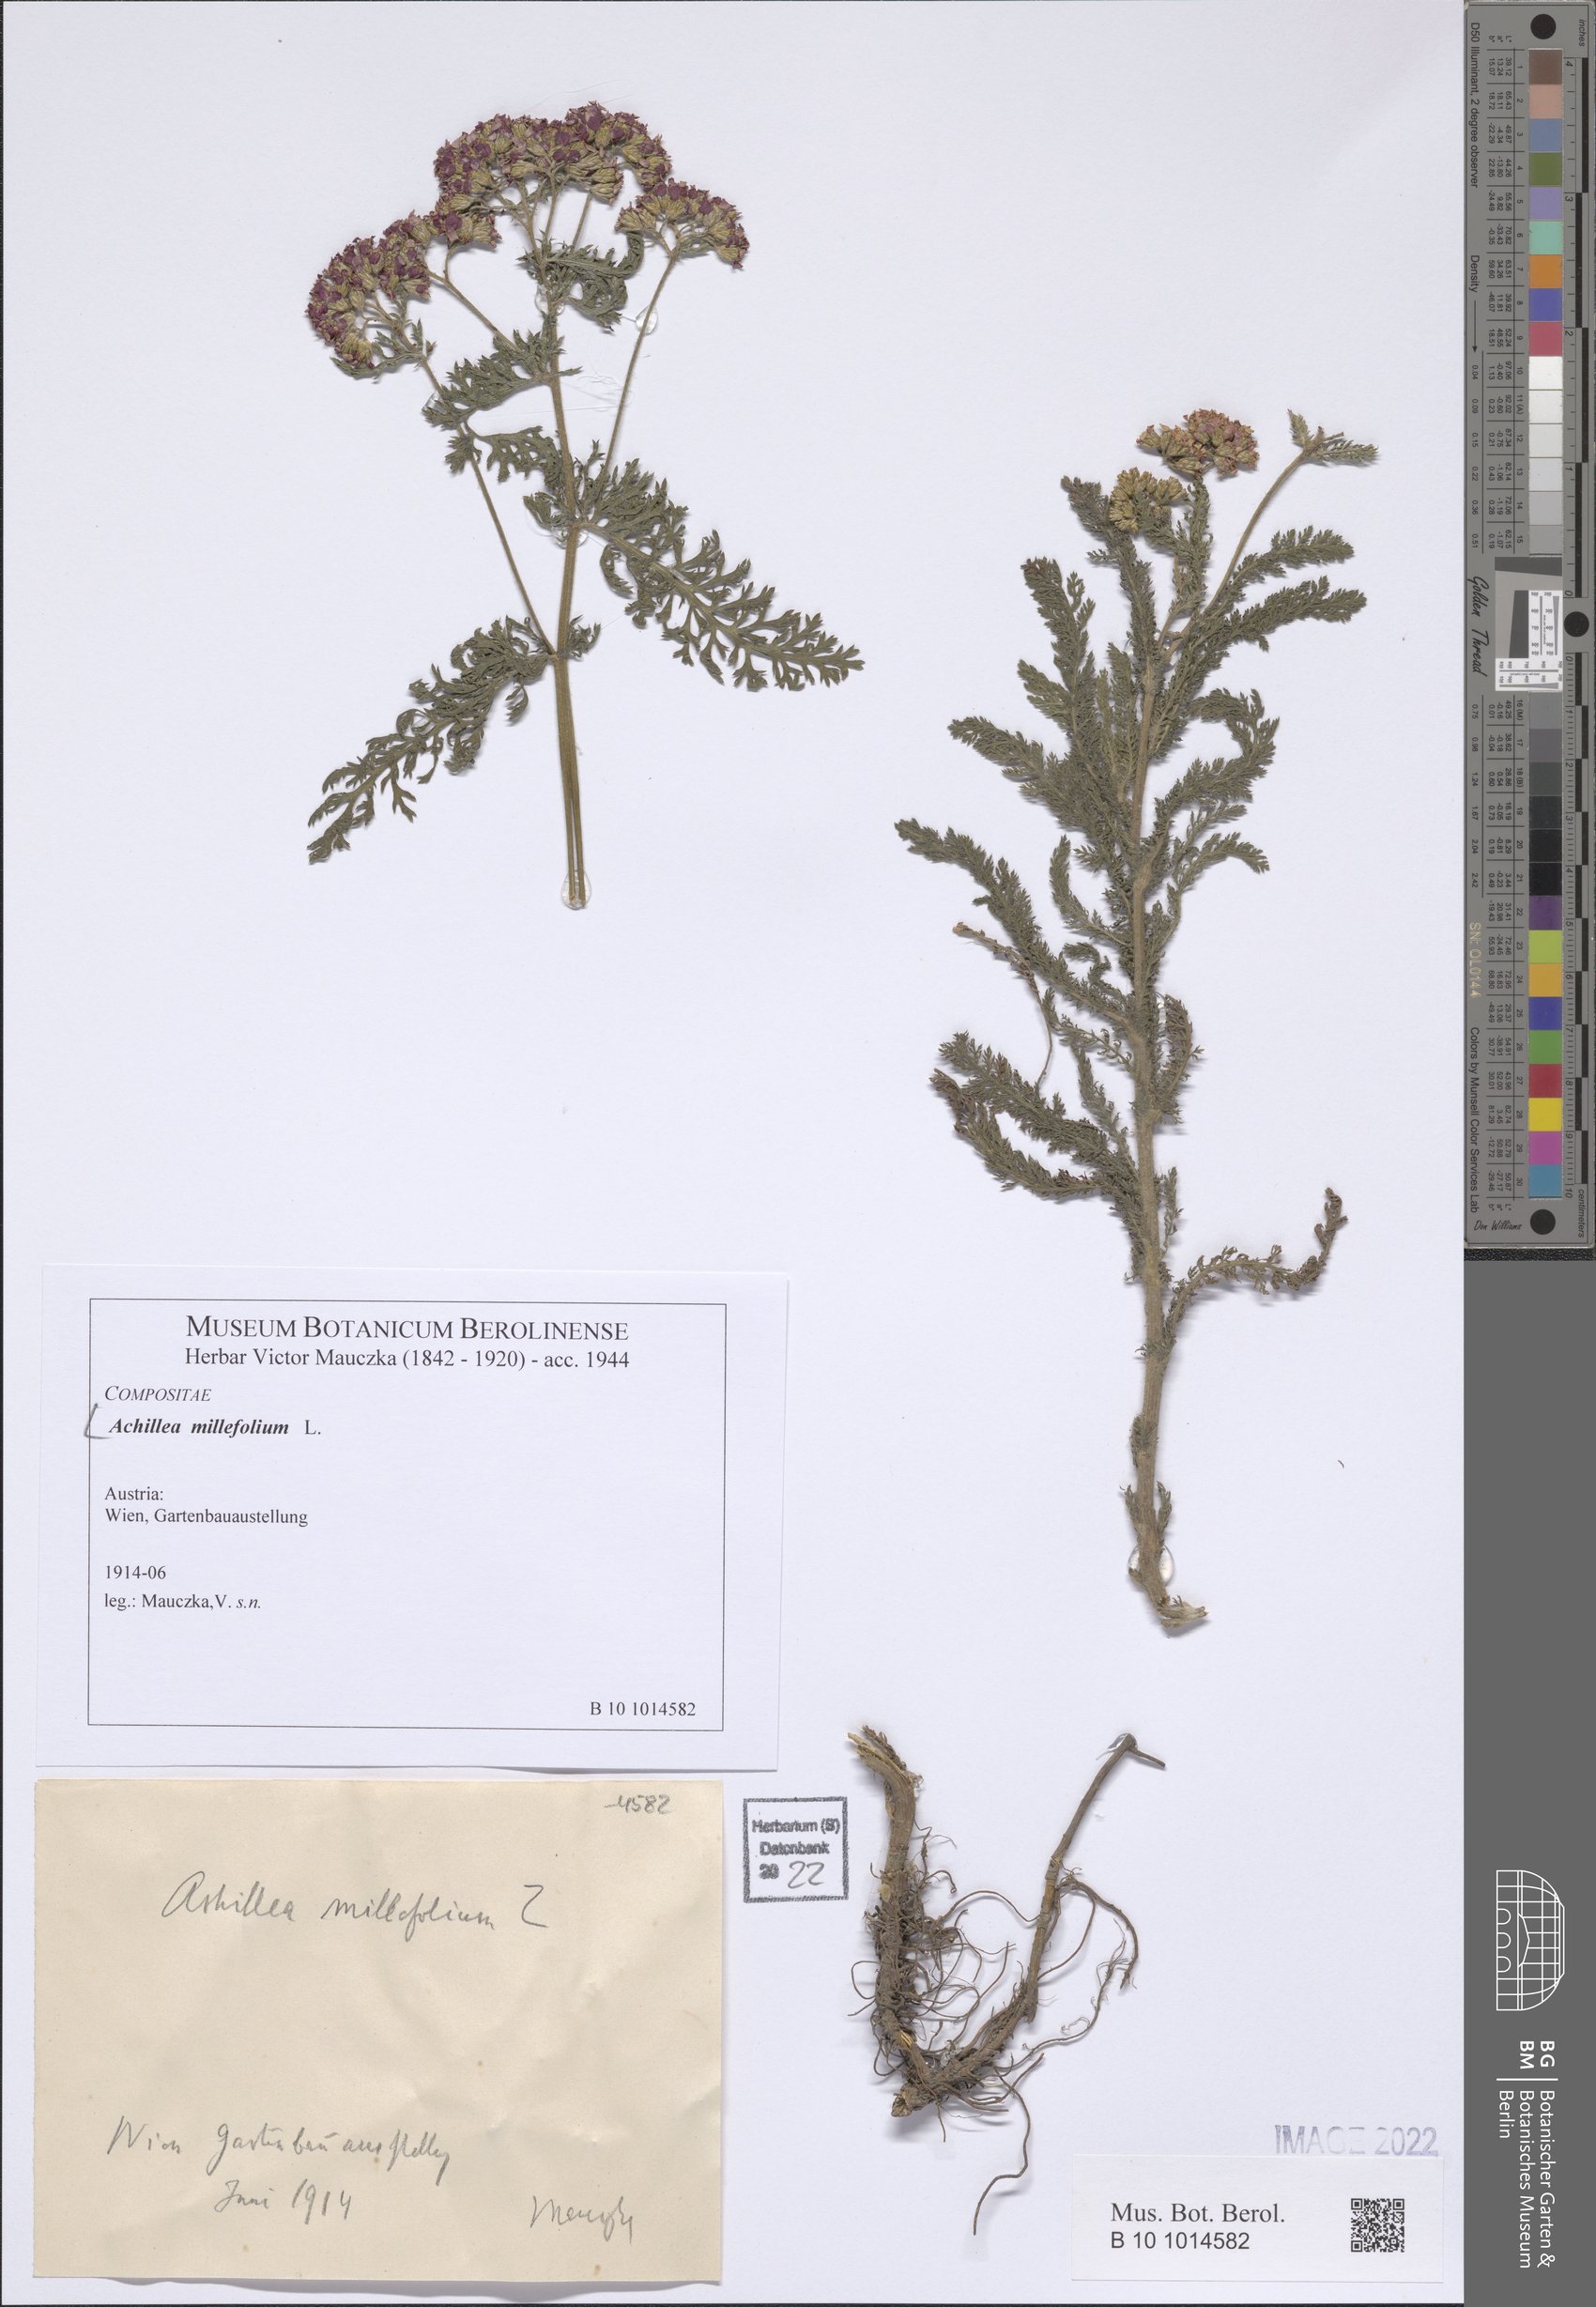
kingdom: Plantae
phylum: Tracheophyta
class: Magnoliopsida
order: Asterales
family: Asteraceae
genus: Achillea
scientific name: Achillea millefolium
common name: Yarrow
